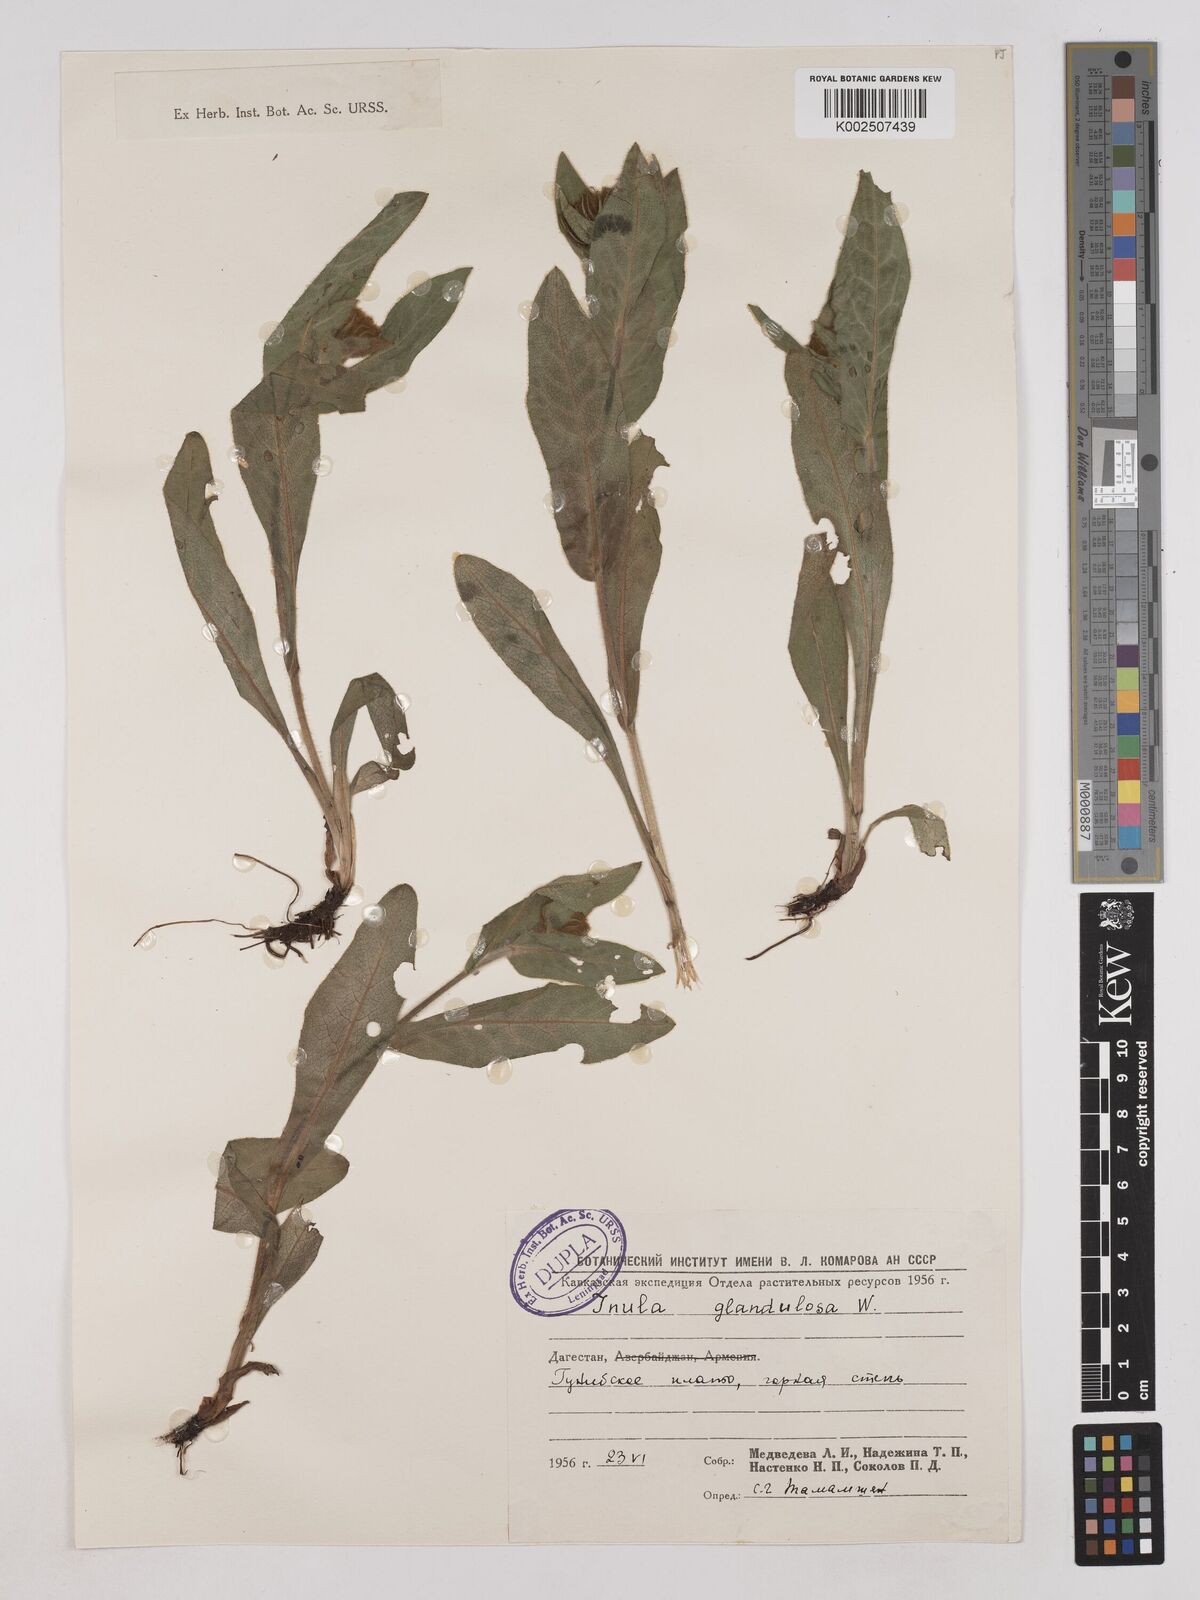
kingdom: Plantae
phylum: Tracheophyta
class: Magnoliopsida
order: Asterales
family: Asteraceae
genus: Pentanema
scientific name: Pentanema orientale
